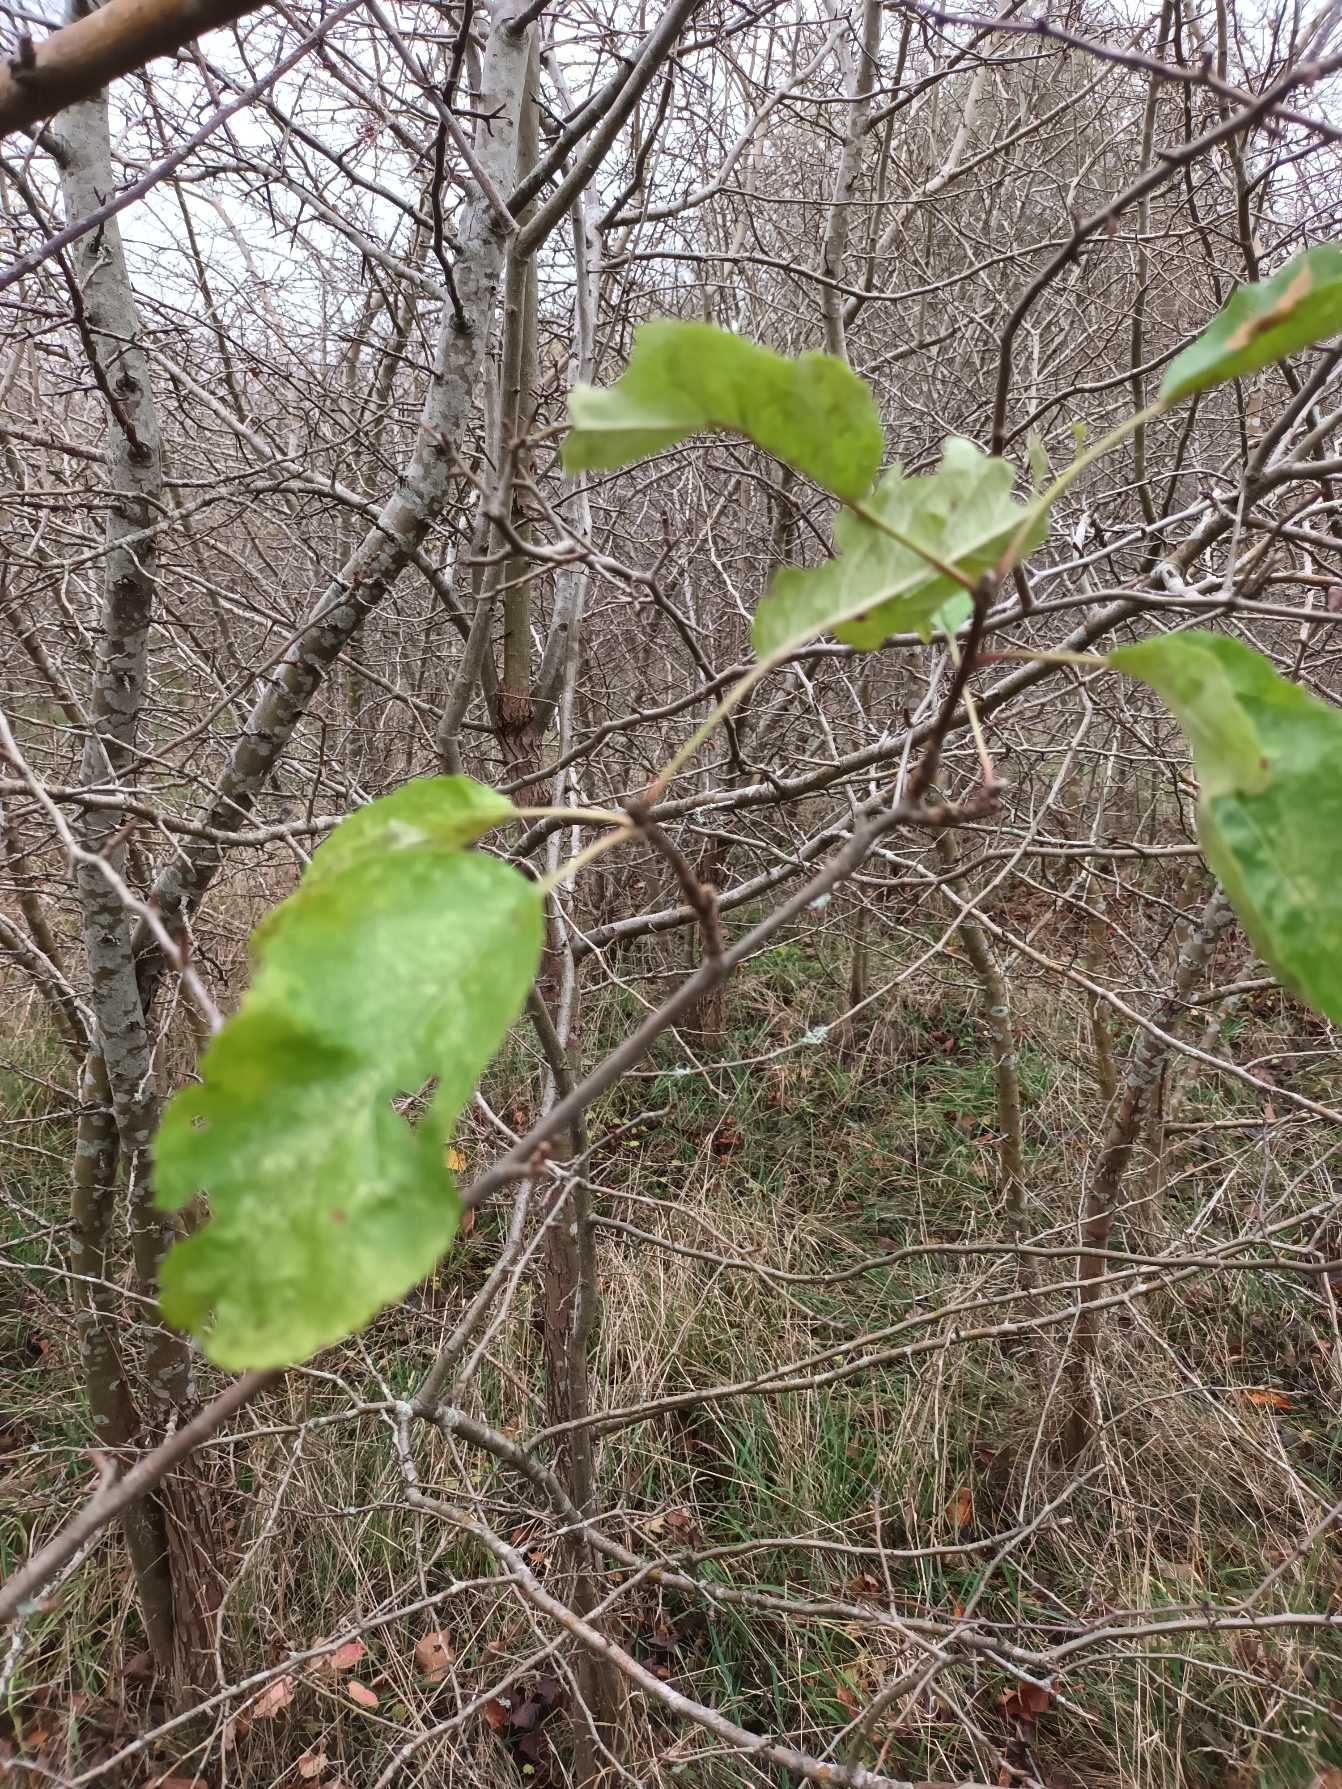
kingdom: Plantae
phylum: Tracheophyta
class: Magnoliopsida
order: Rosales
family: Rosaceae
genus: Malus
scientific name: Malus domestica
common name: Sød-æble
